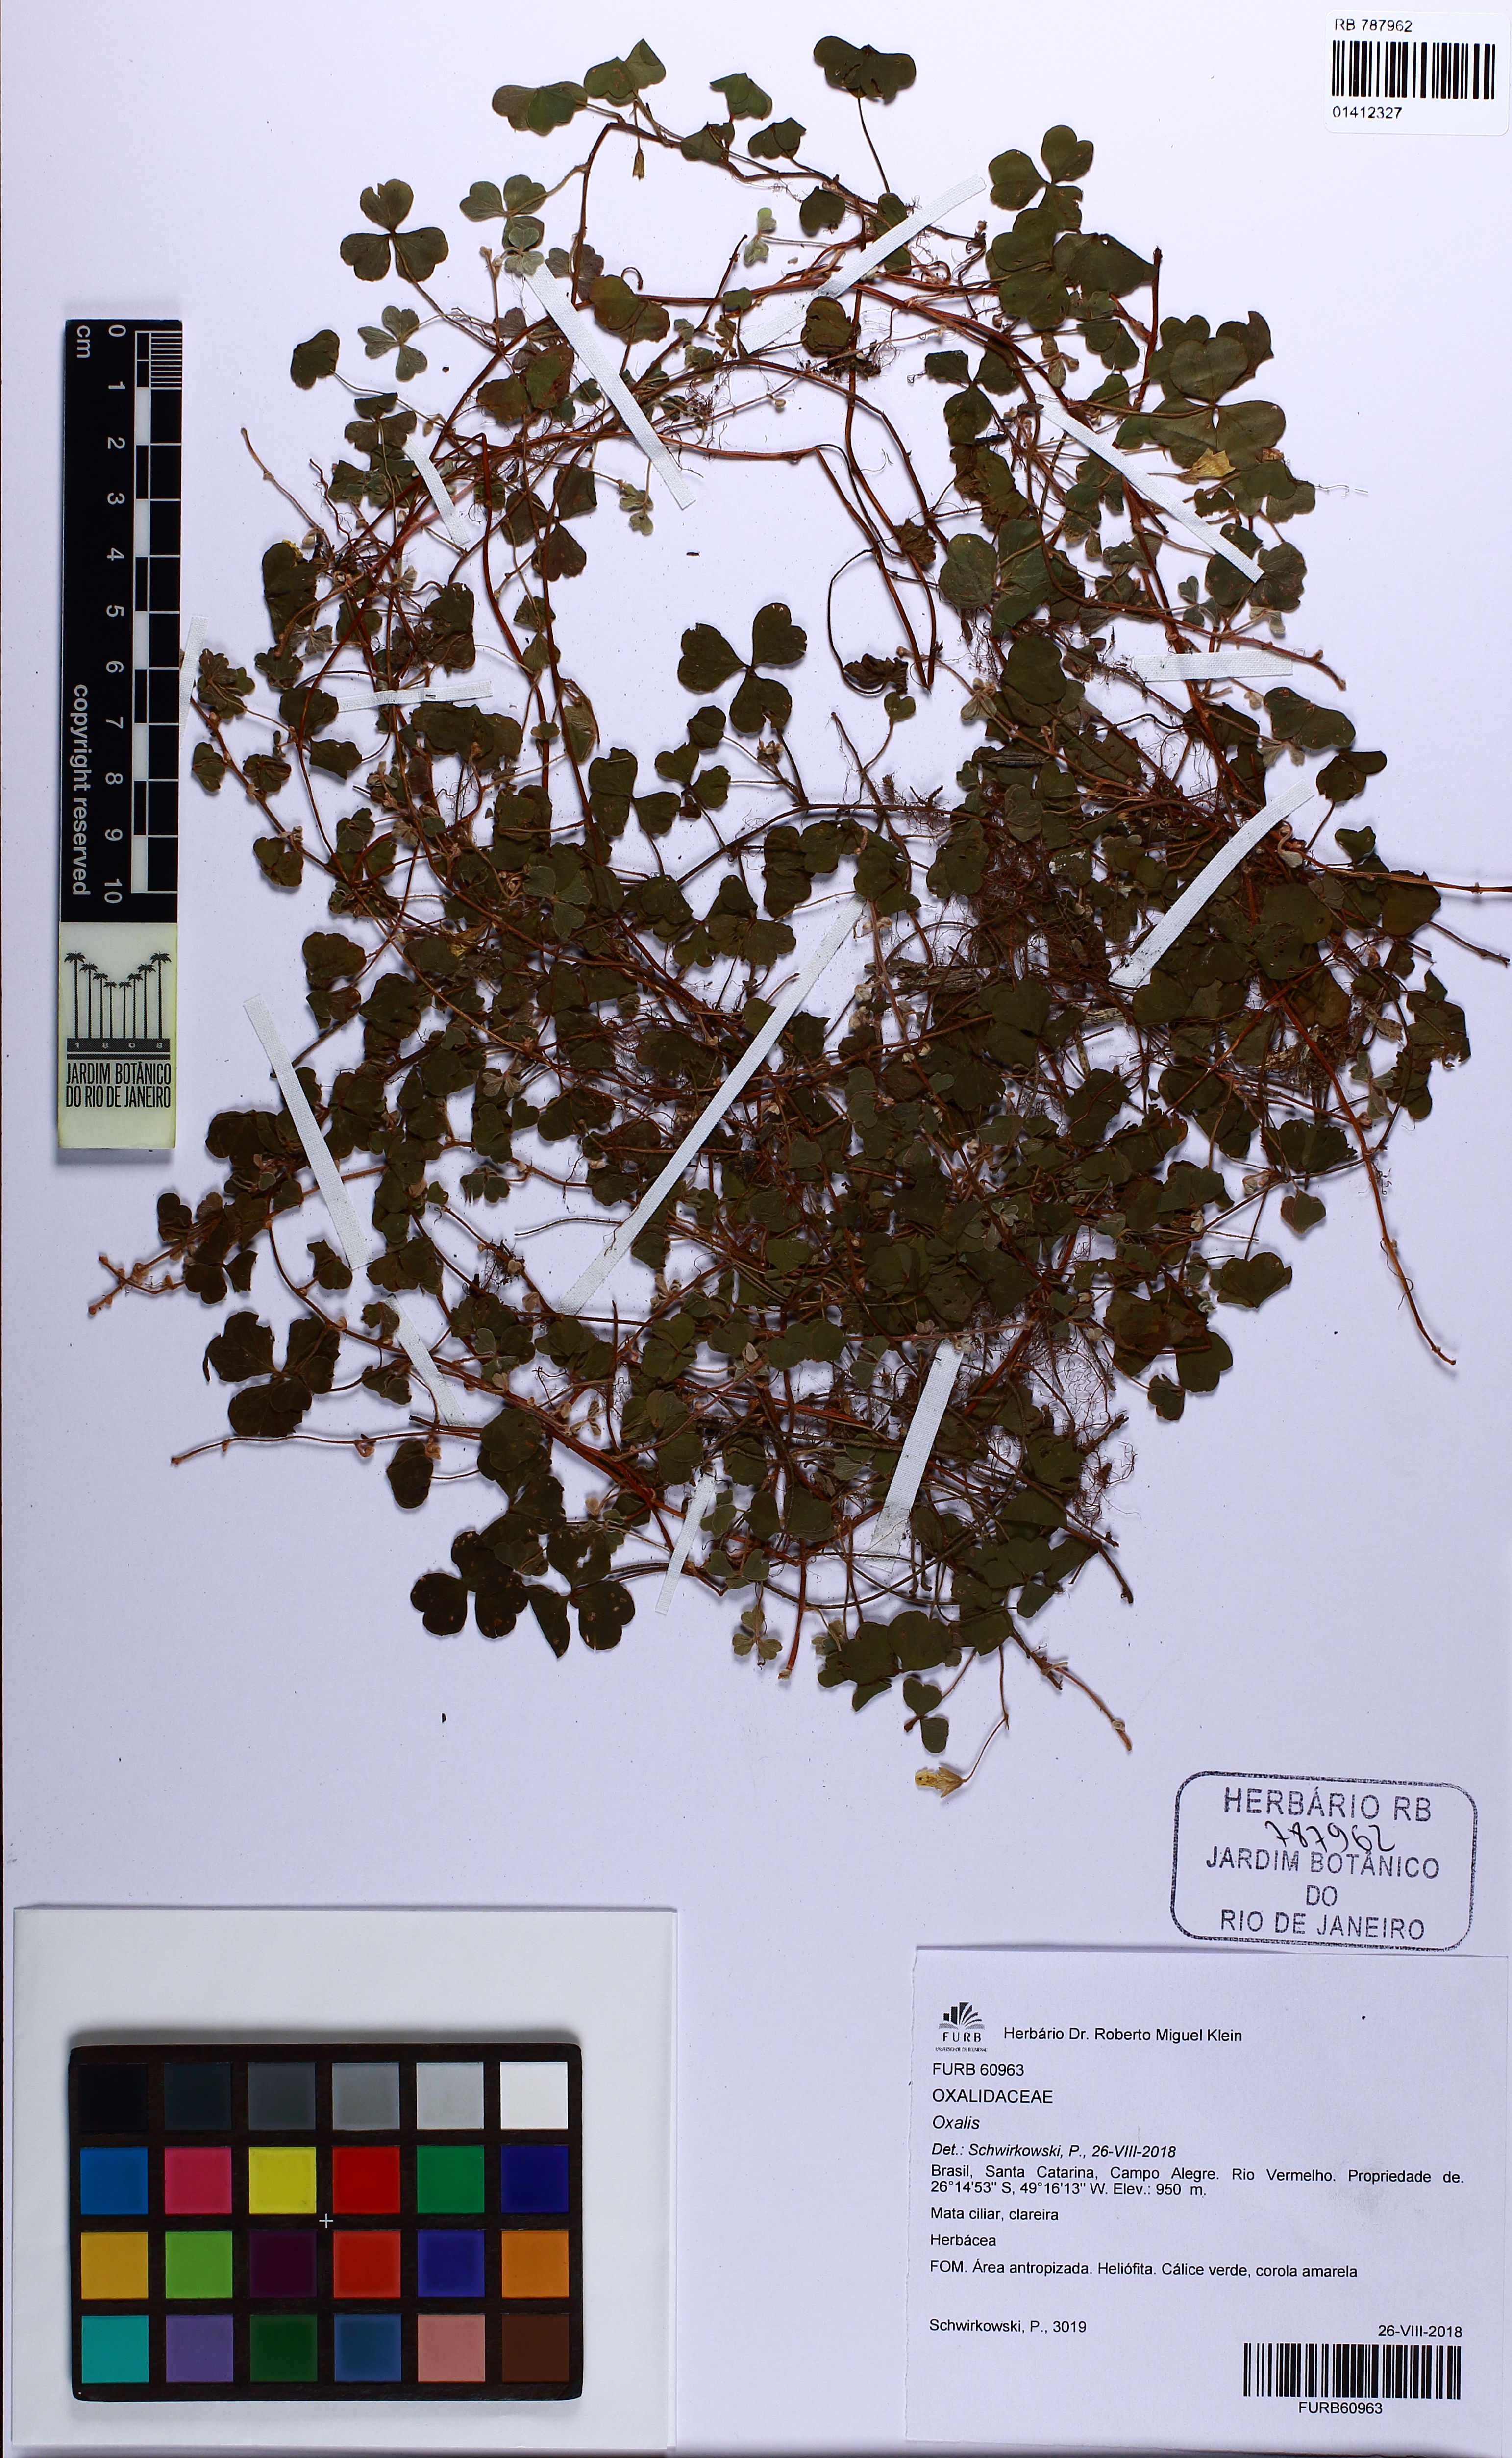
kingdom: Plantae
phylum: Tracheophyta
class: Magnoliopsida
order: Oxalidales
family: Oxalidaceae
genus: Oxalis
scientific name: Oxalis serpens
